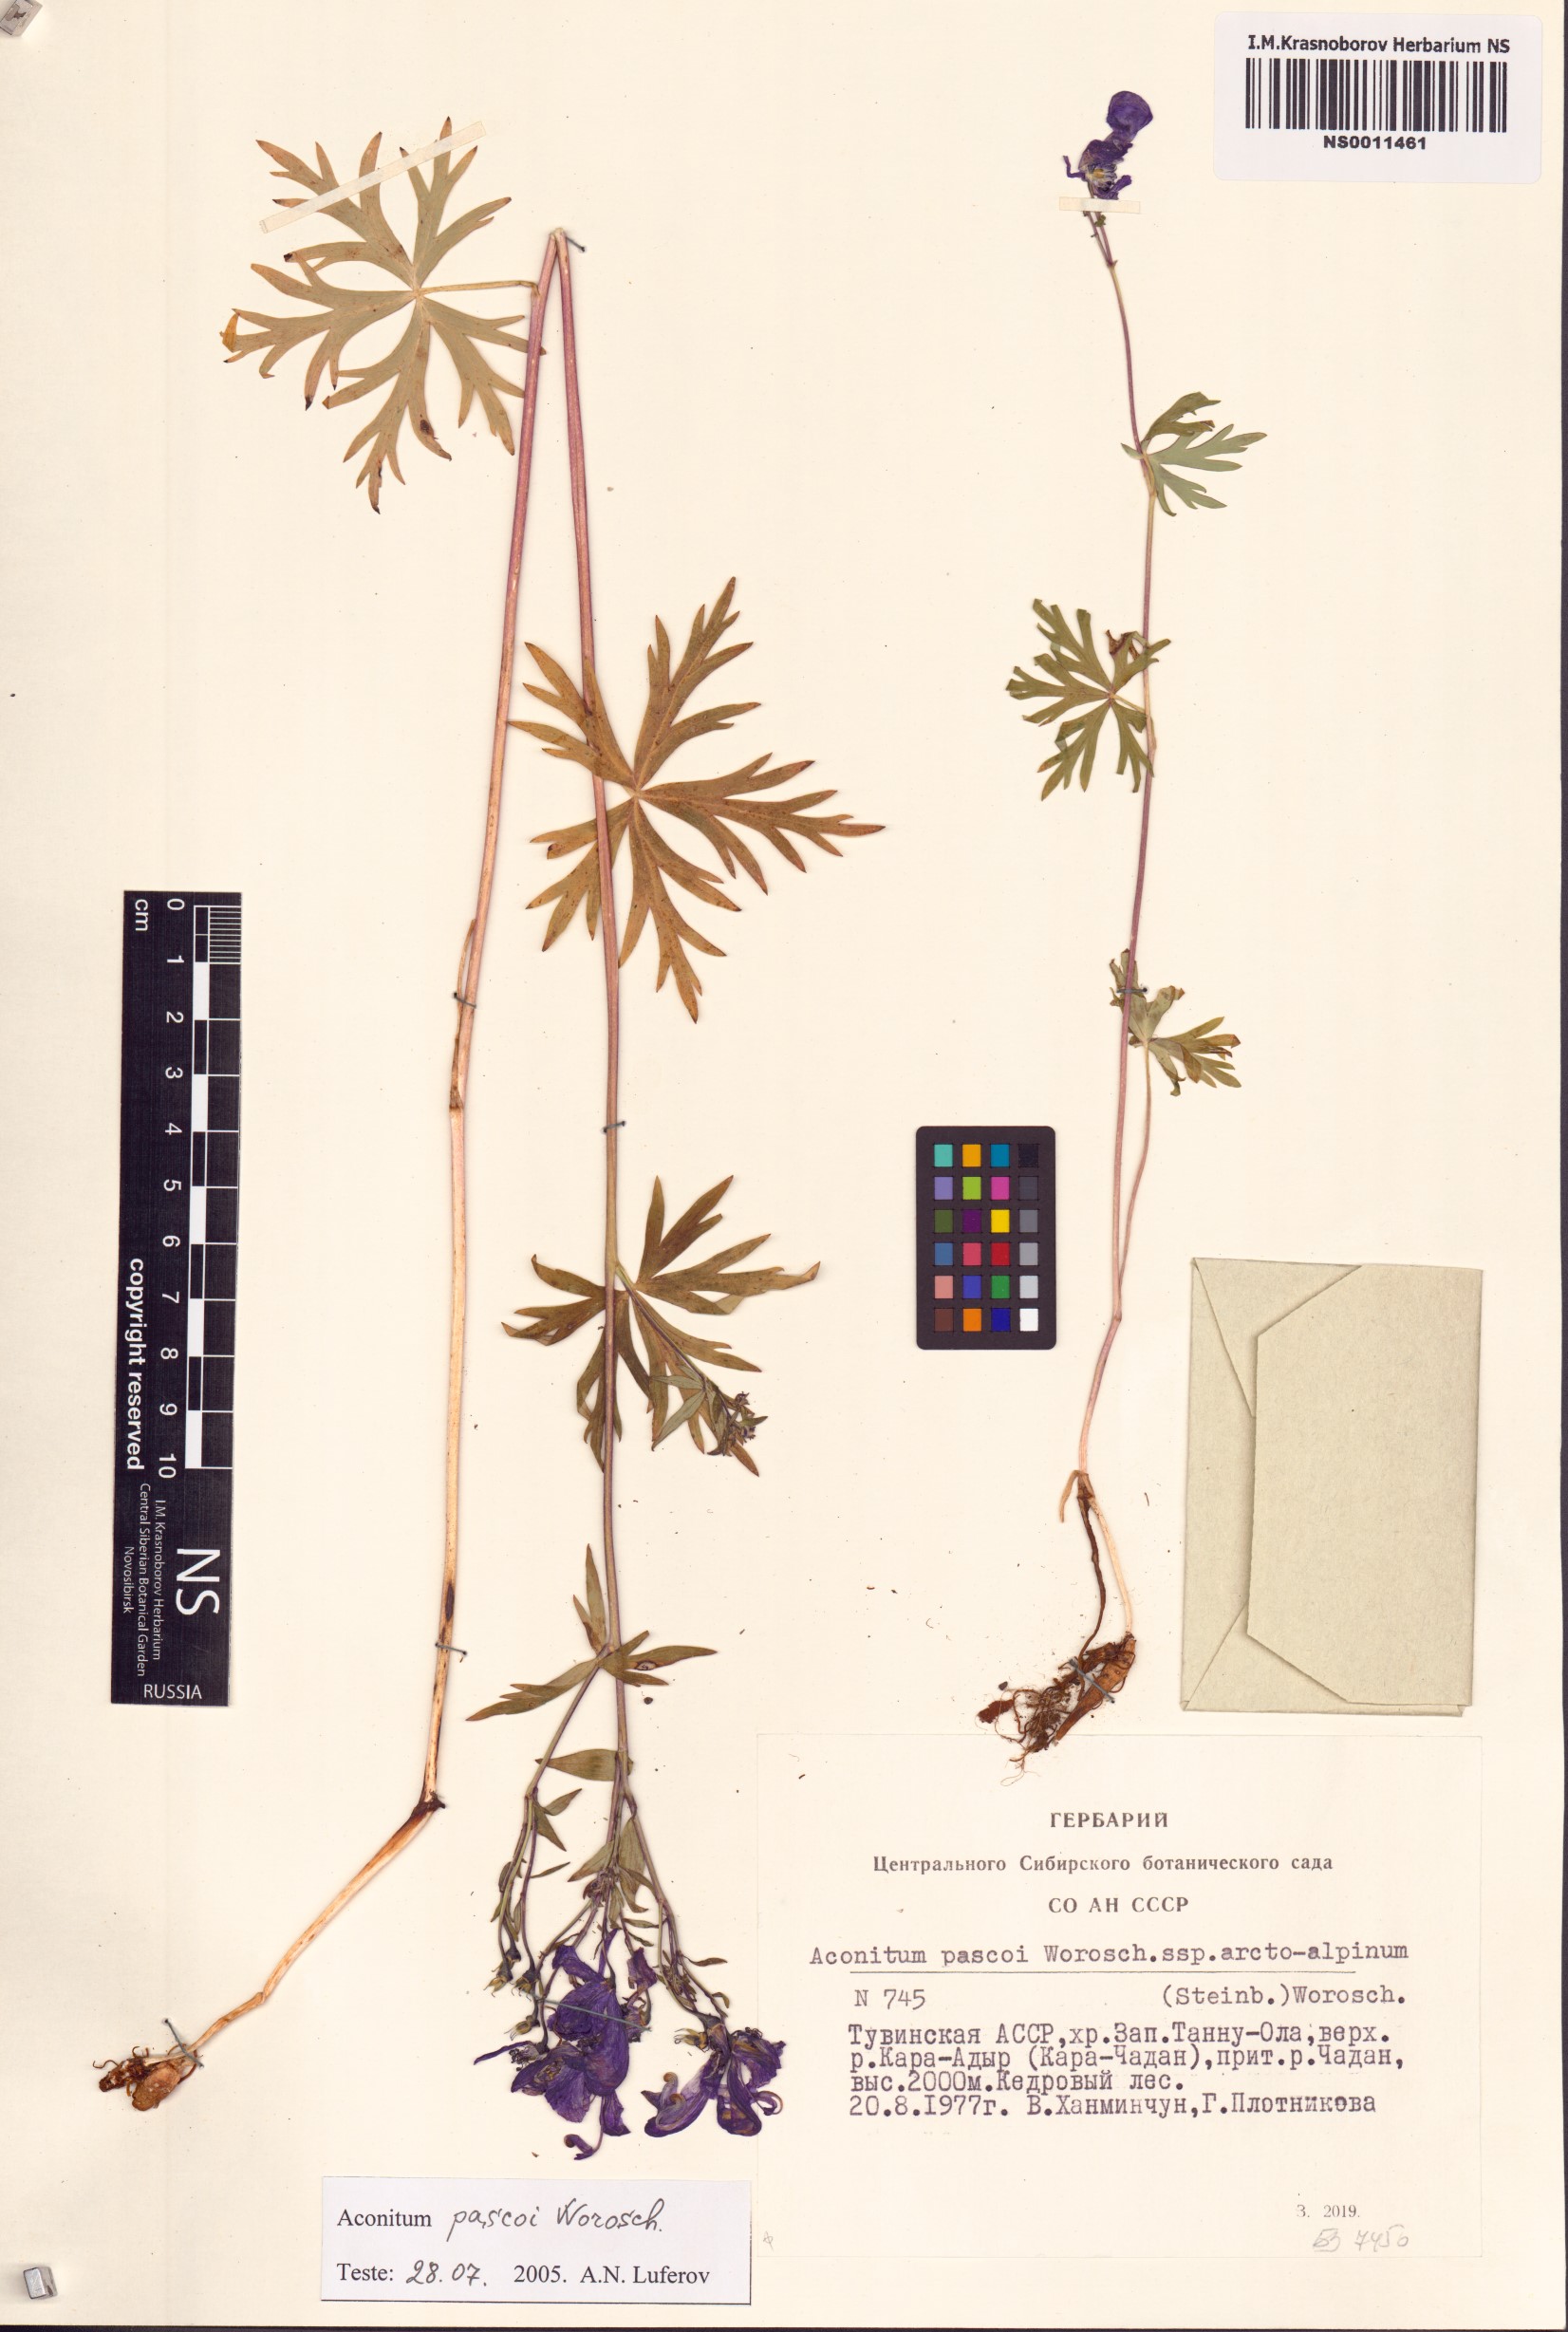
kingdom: Plantae
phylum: Tracheophyta
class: Magnoliopsida
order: Ranunculales
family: Ranunculaceae
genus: Aconitum
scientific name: Aconitum pascoi
